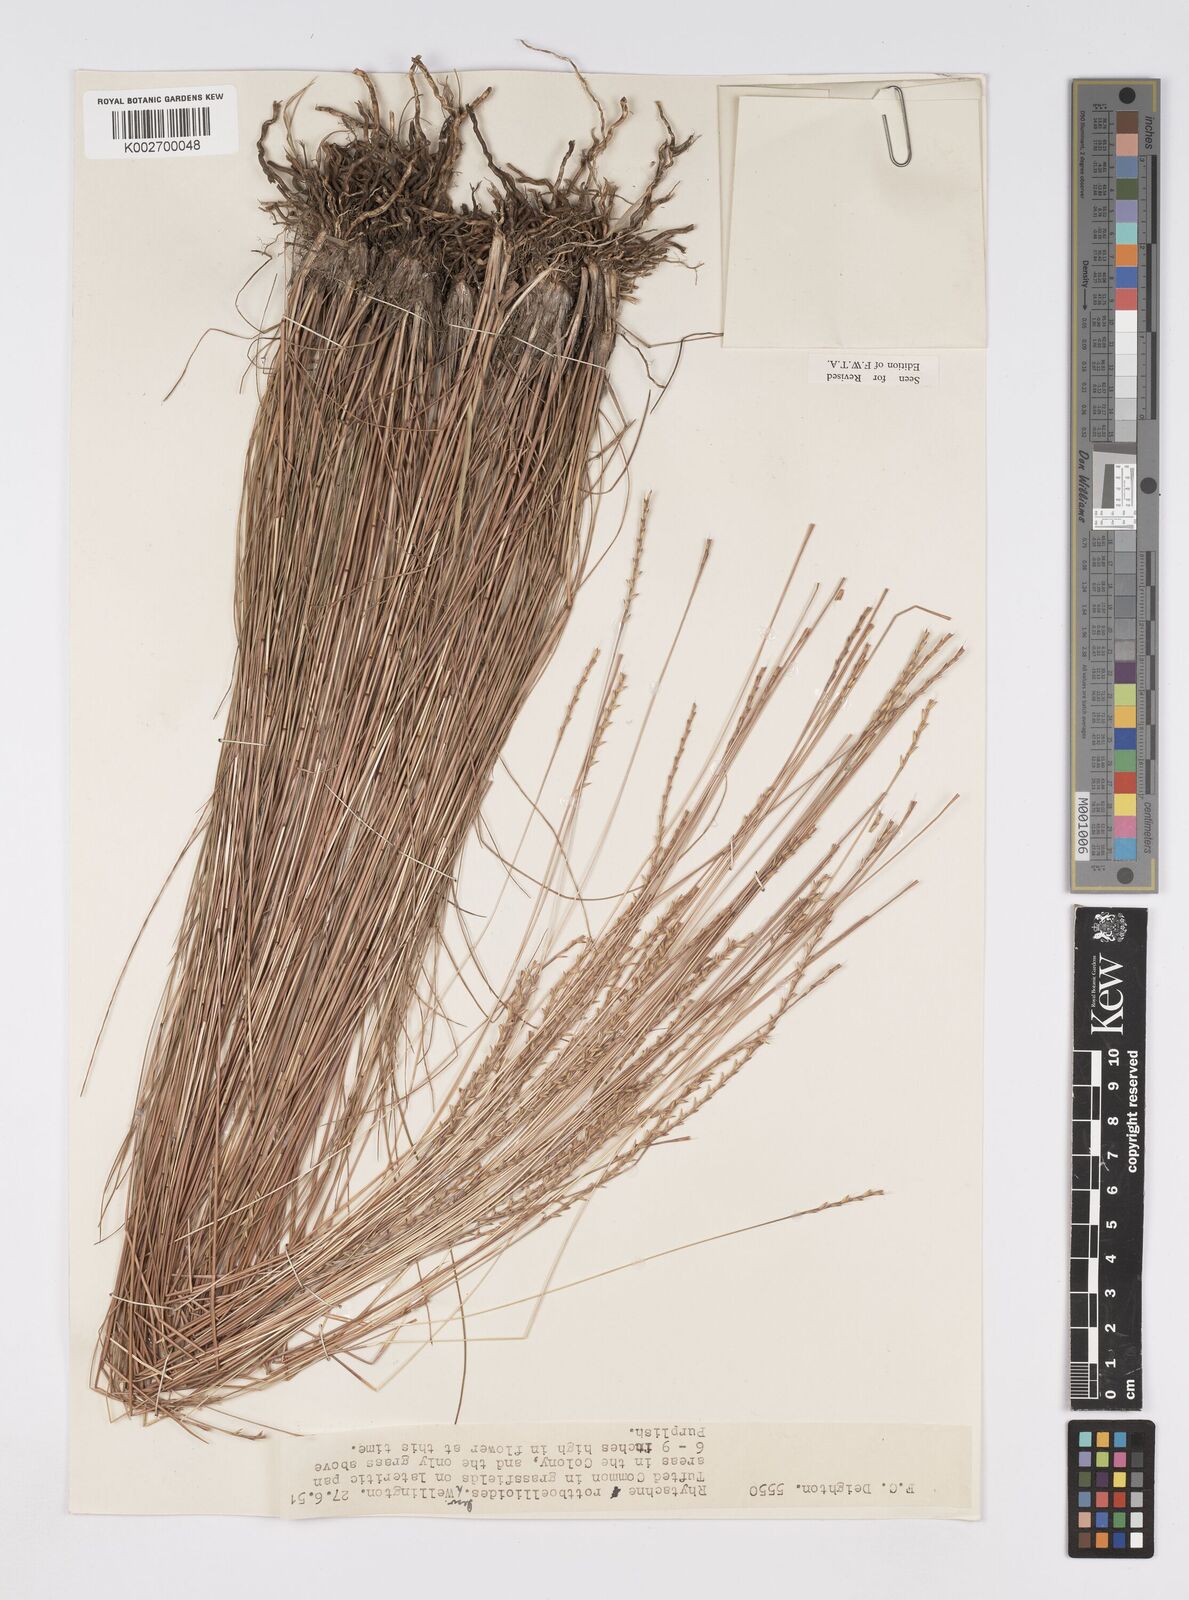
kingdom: Plantae
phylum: Tracheophyta
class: Liliopsida
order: Poales
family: Poaceae
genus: Rhytachne
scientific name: Rhytachne rottboellioides
